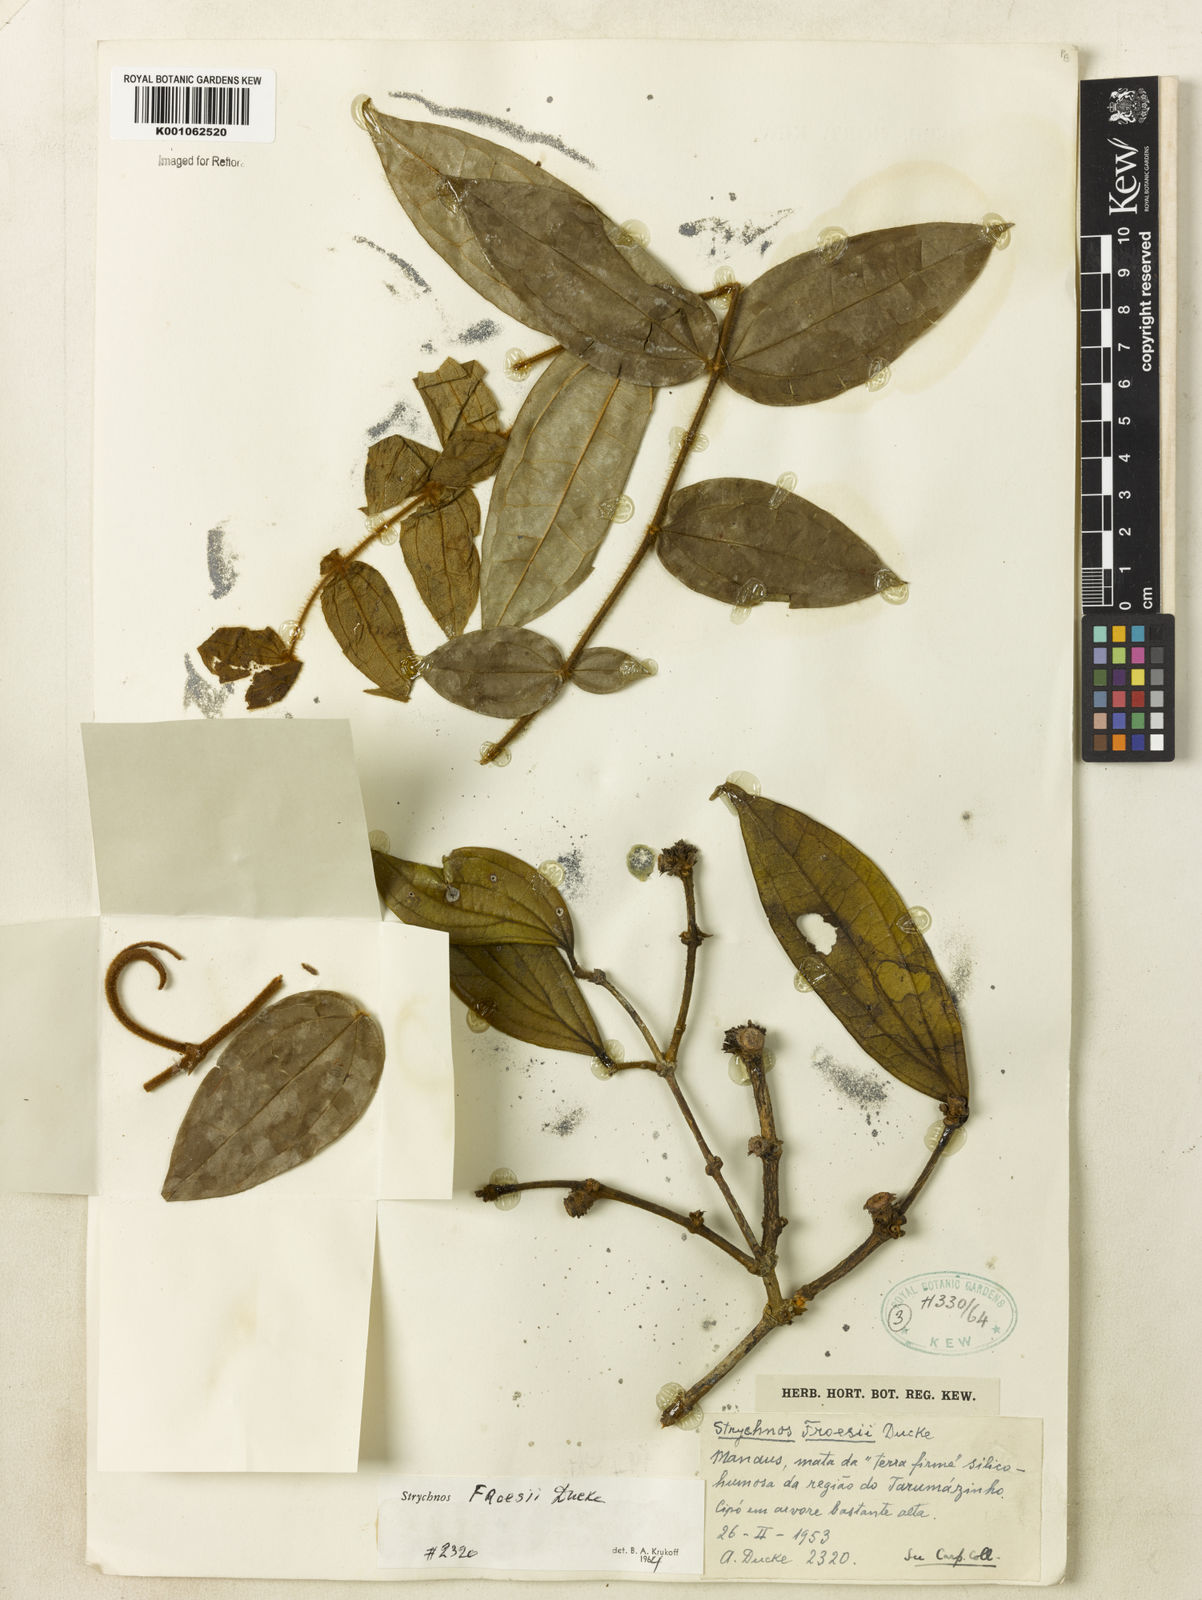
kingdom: Plantae
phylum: Tracheophyta
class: Magnoliopsida
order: Gentianales
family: Loganiaceae
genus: Strychnos
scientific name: Strychnos froesii
